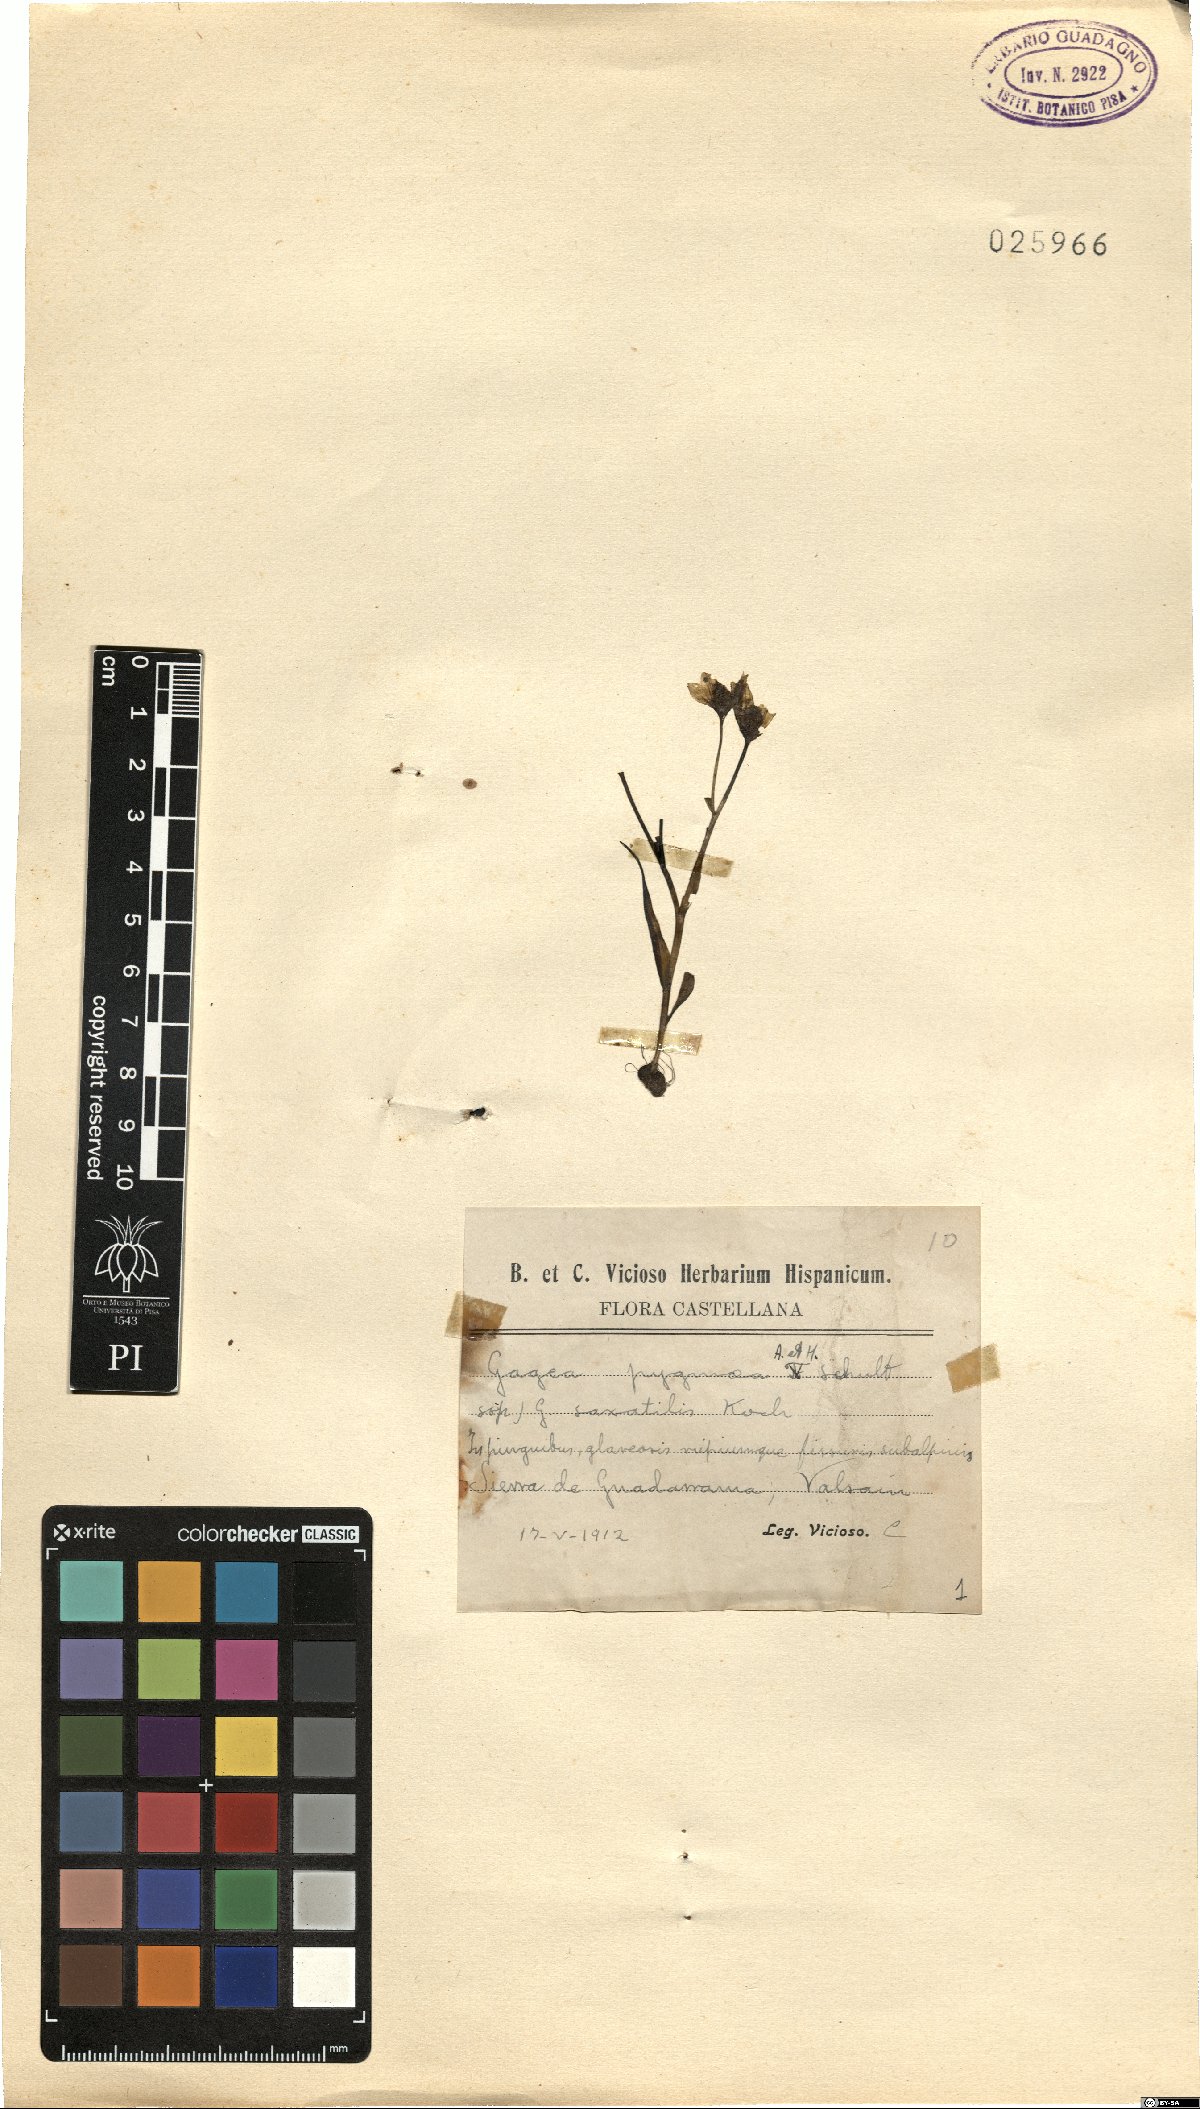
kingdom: Plantae
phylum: Tracheophyta
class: Liliopsida
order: Liliales
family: Liliaceae
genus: Gagea
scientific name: Gagea bohemica
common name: Early star-of-bethlehem
